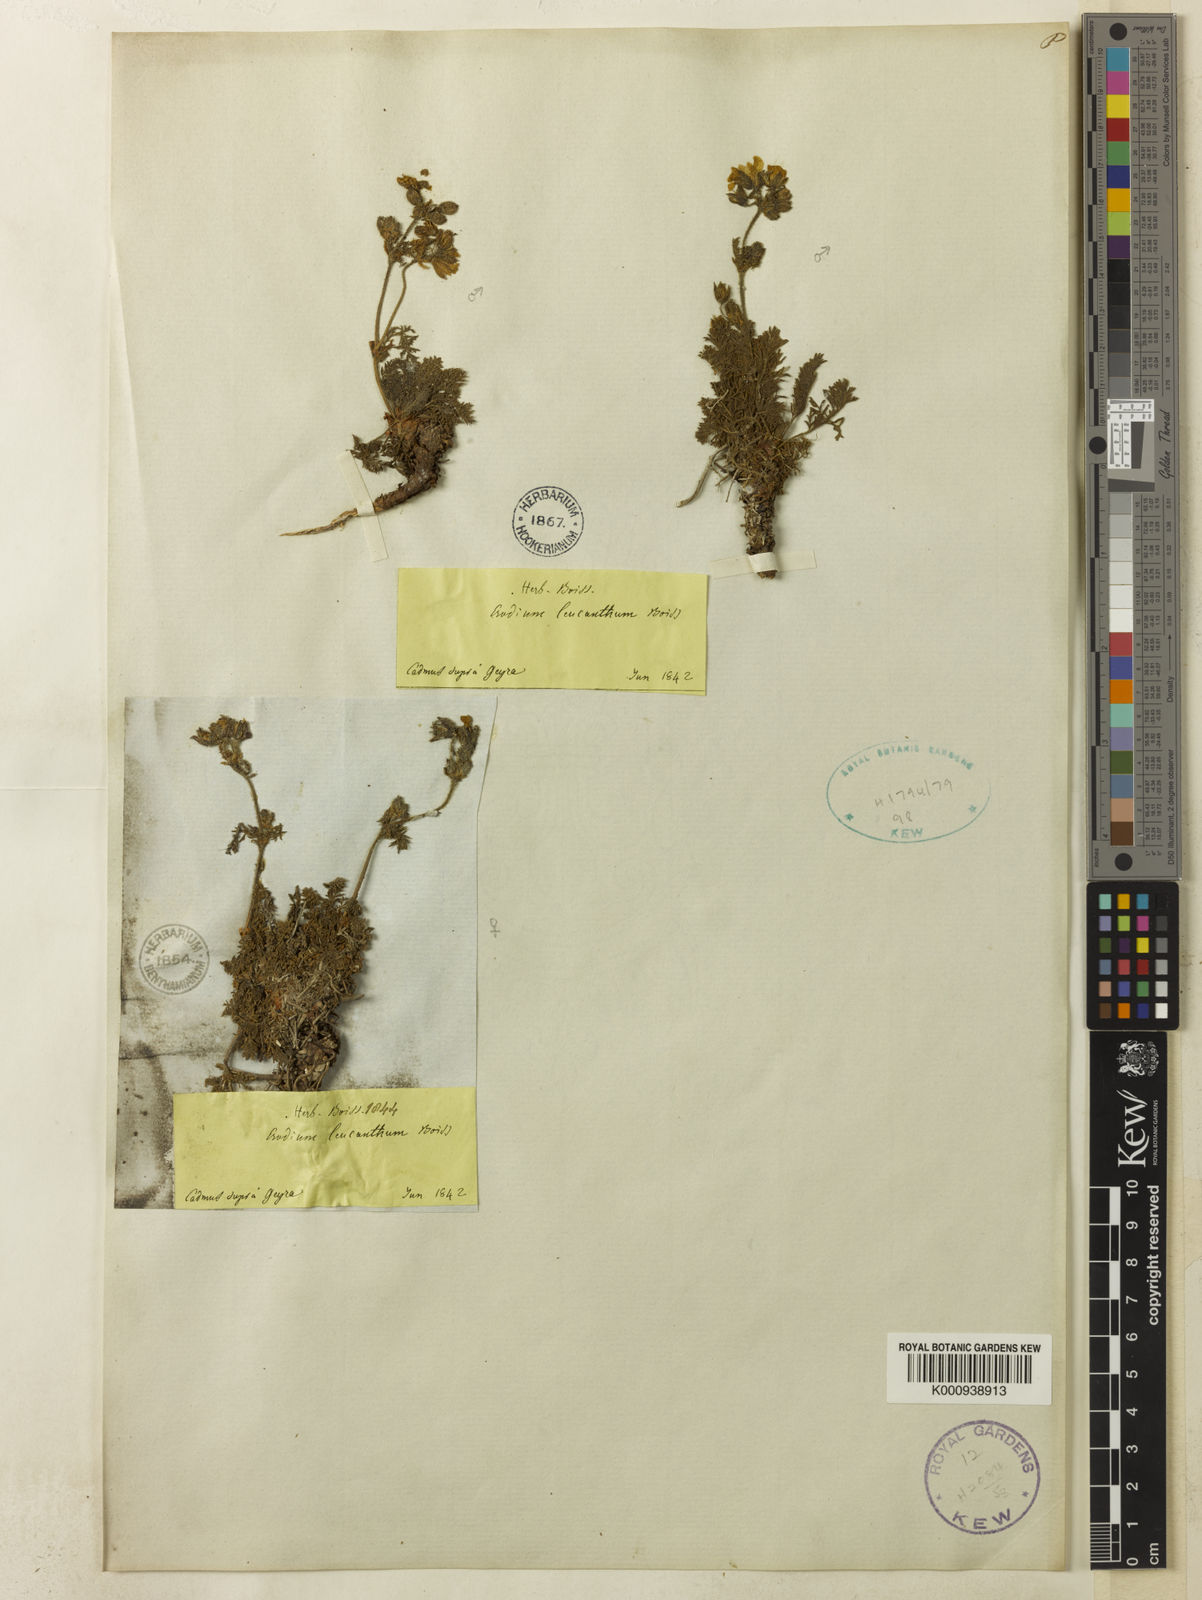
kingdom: Plantae
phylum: Tracheophyta
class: Magnoliopsida
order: Geraniales
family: Geraniaceae
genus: Erodium
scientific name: Erodium trichomanifolium
